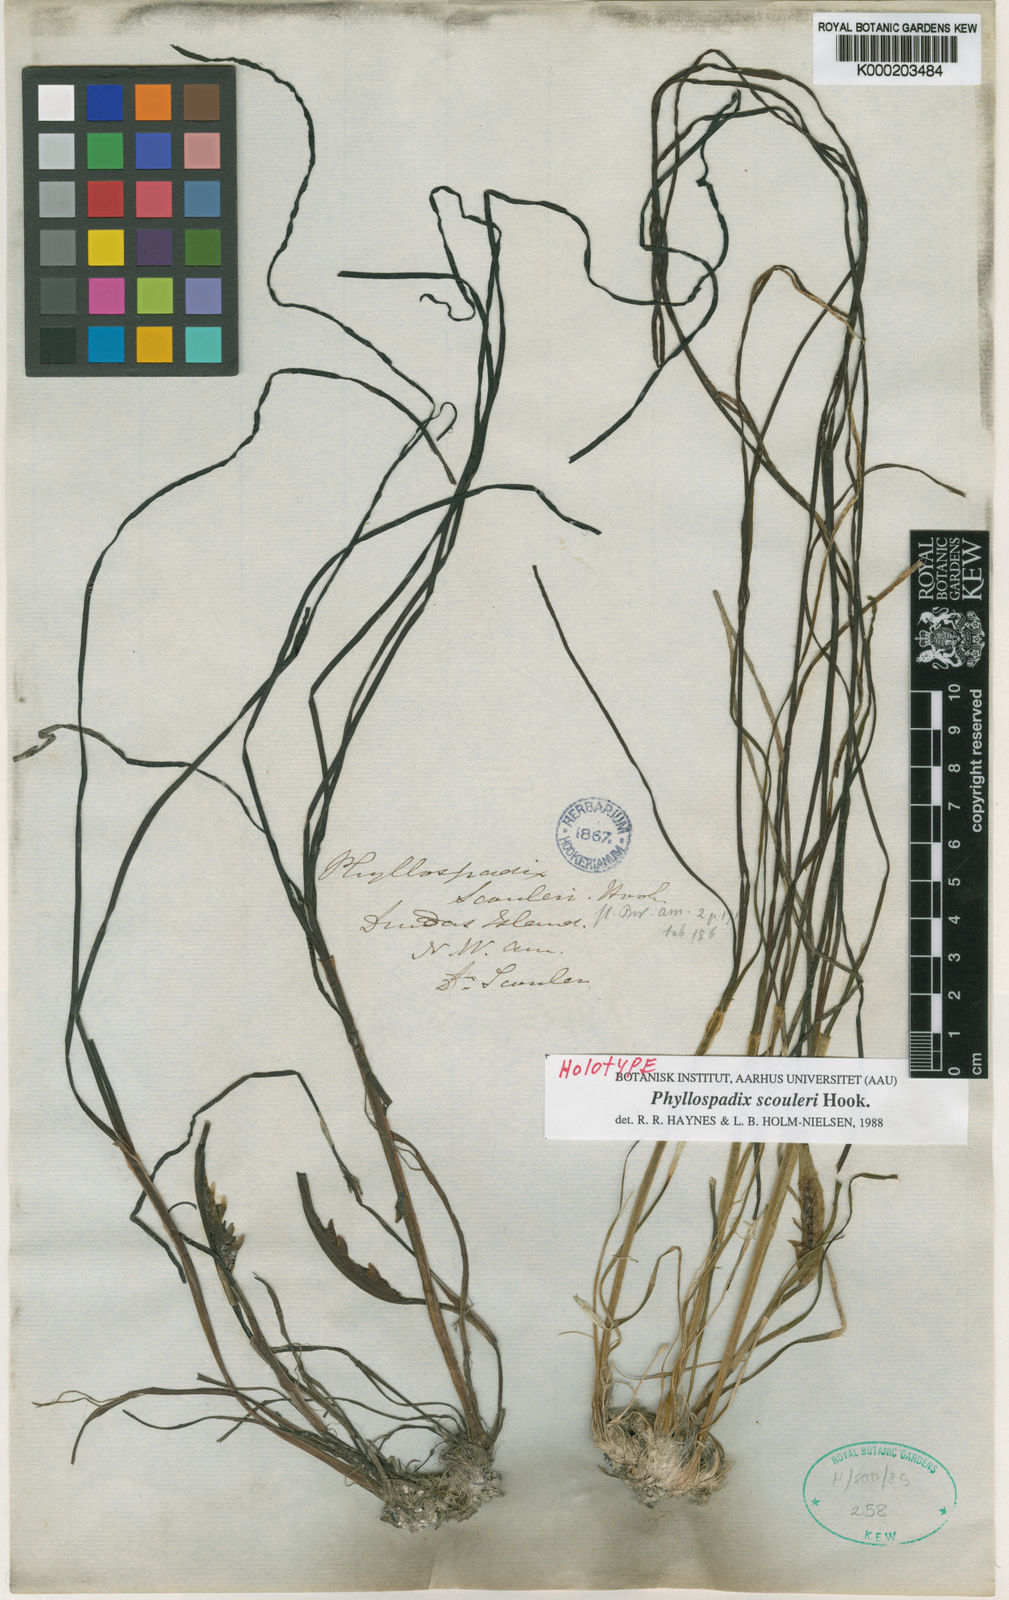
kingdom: Plantae
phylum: Tracheophyta
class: Liliopsida
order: Alismatales
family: Zosteraceae
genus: Phyllospadix
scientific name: Phyllospadix scouleri
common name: Species code: ps
